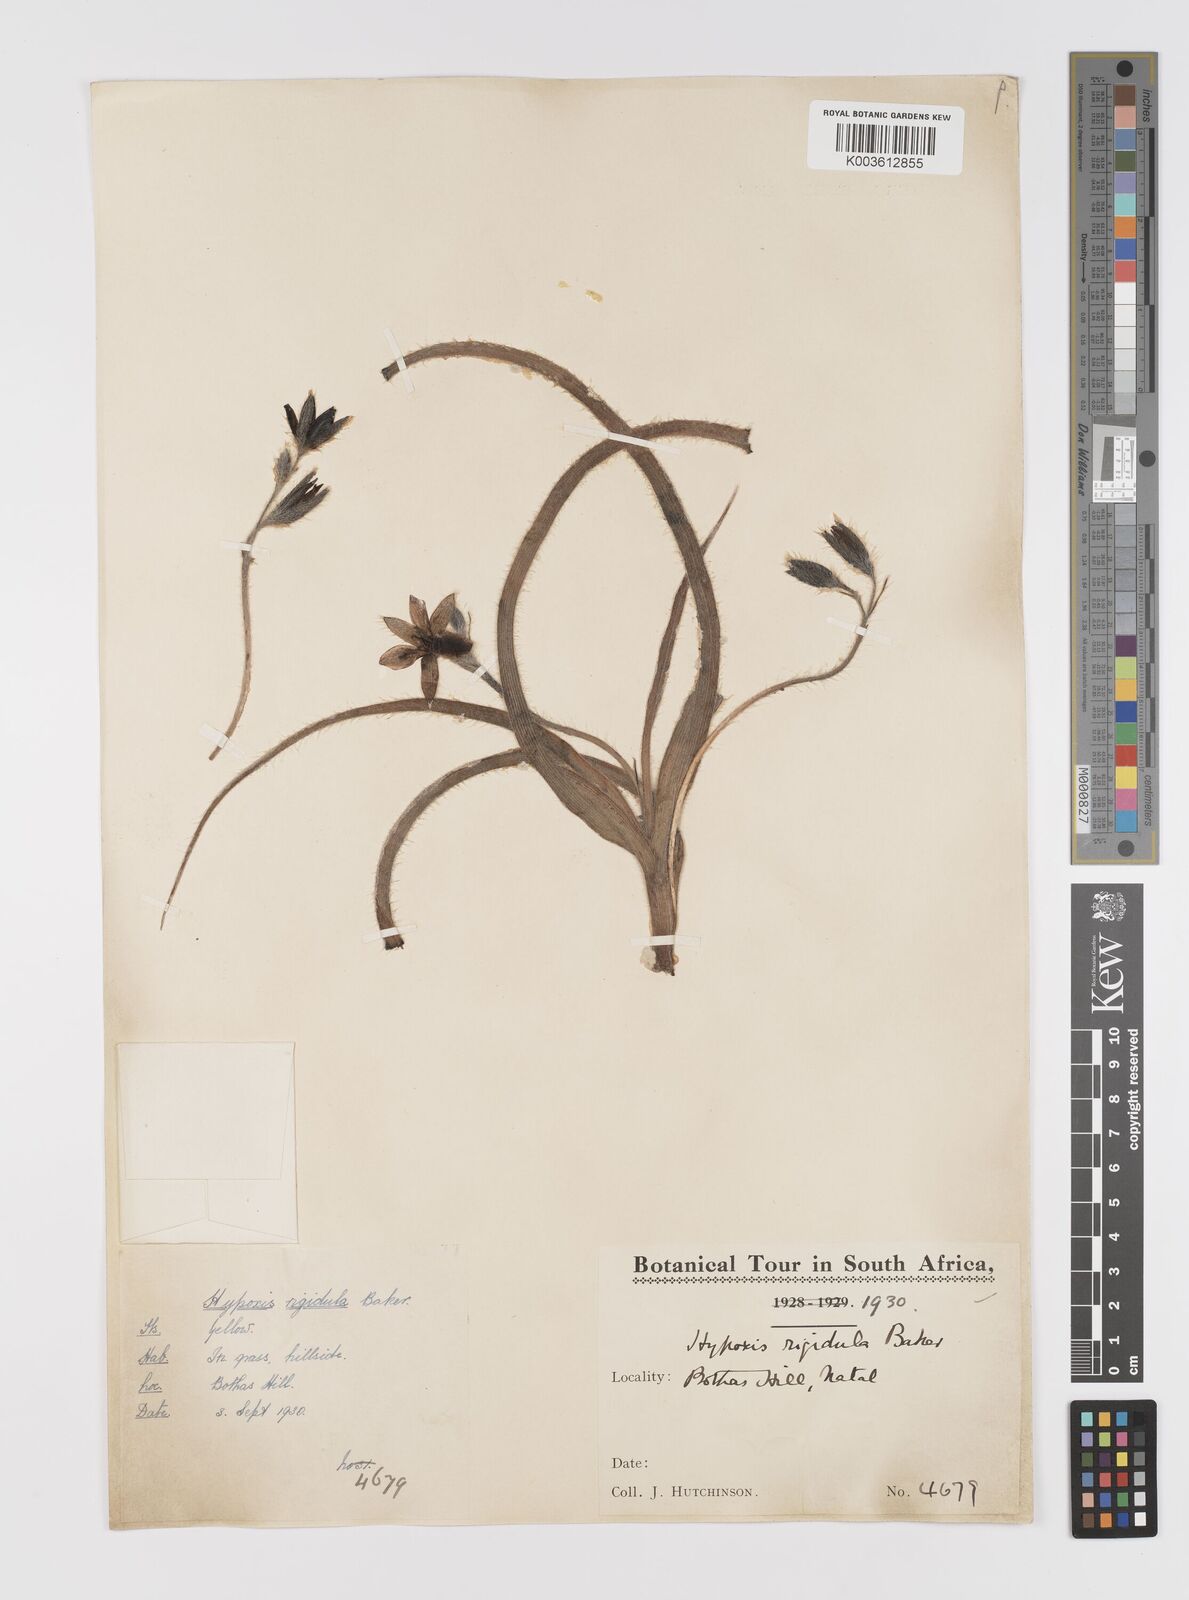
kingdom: Plantae
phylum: Tracheophyta
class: Liliopsida
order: Asparagales
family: Hypoxidaceae
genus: Hypoxis
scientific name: Hypoxis hemerocallidea
